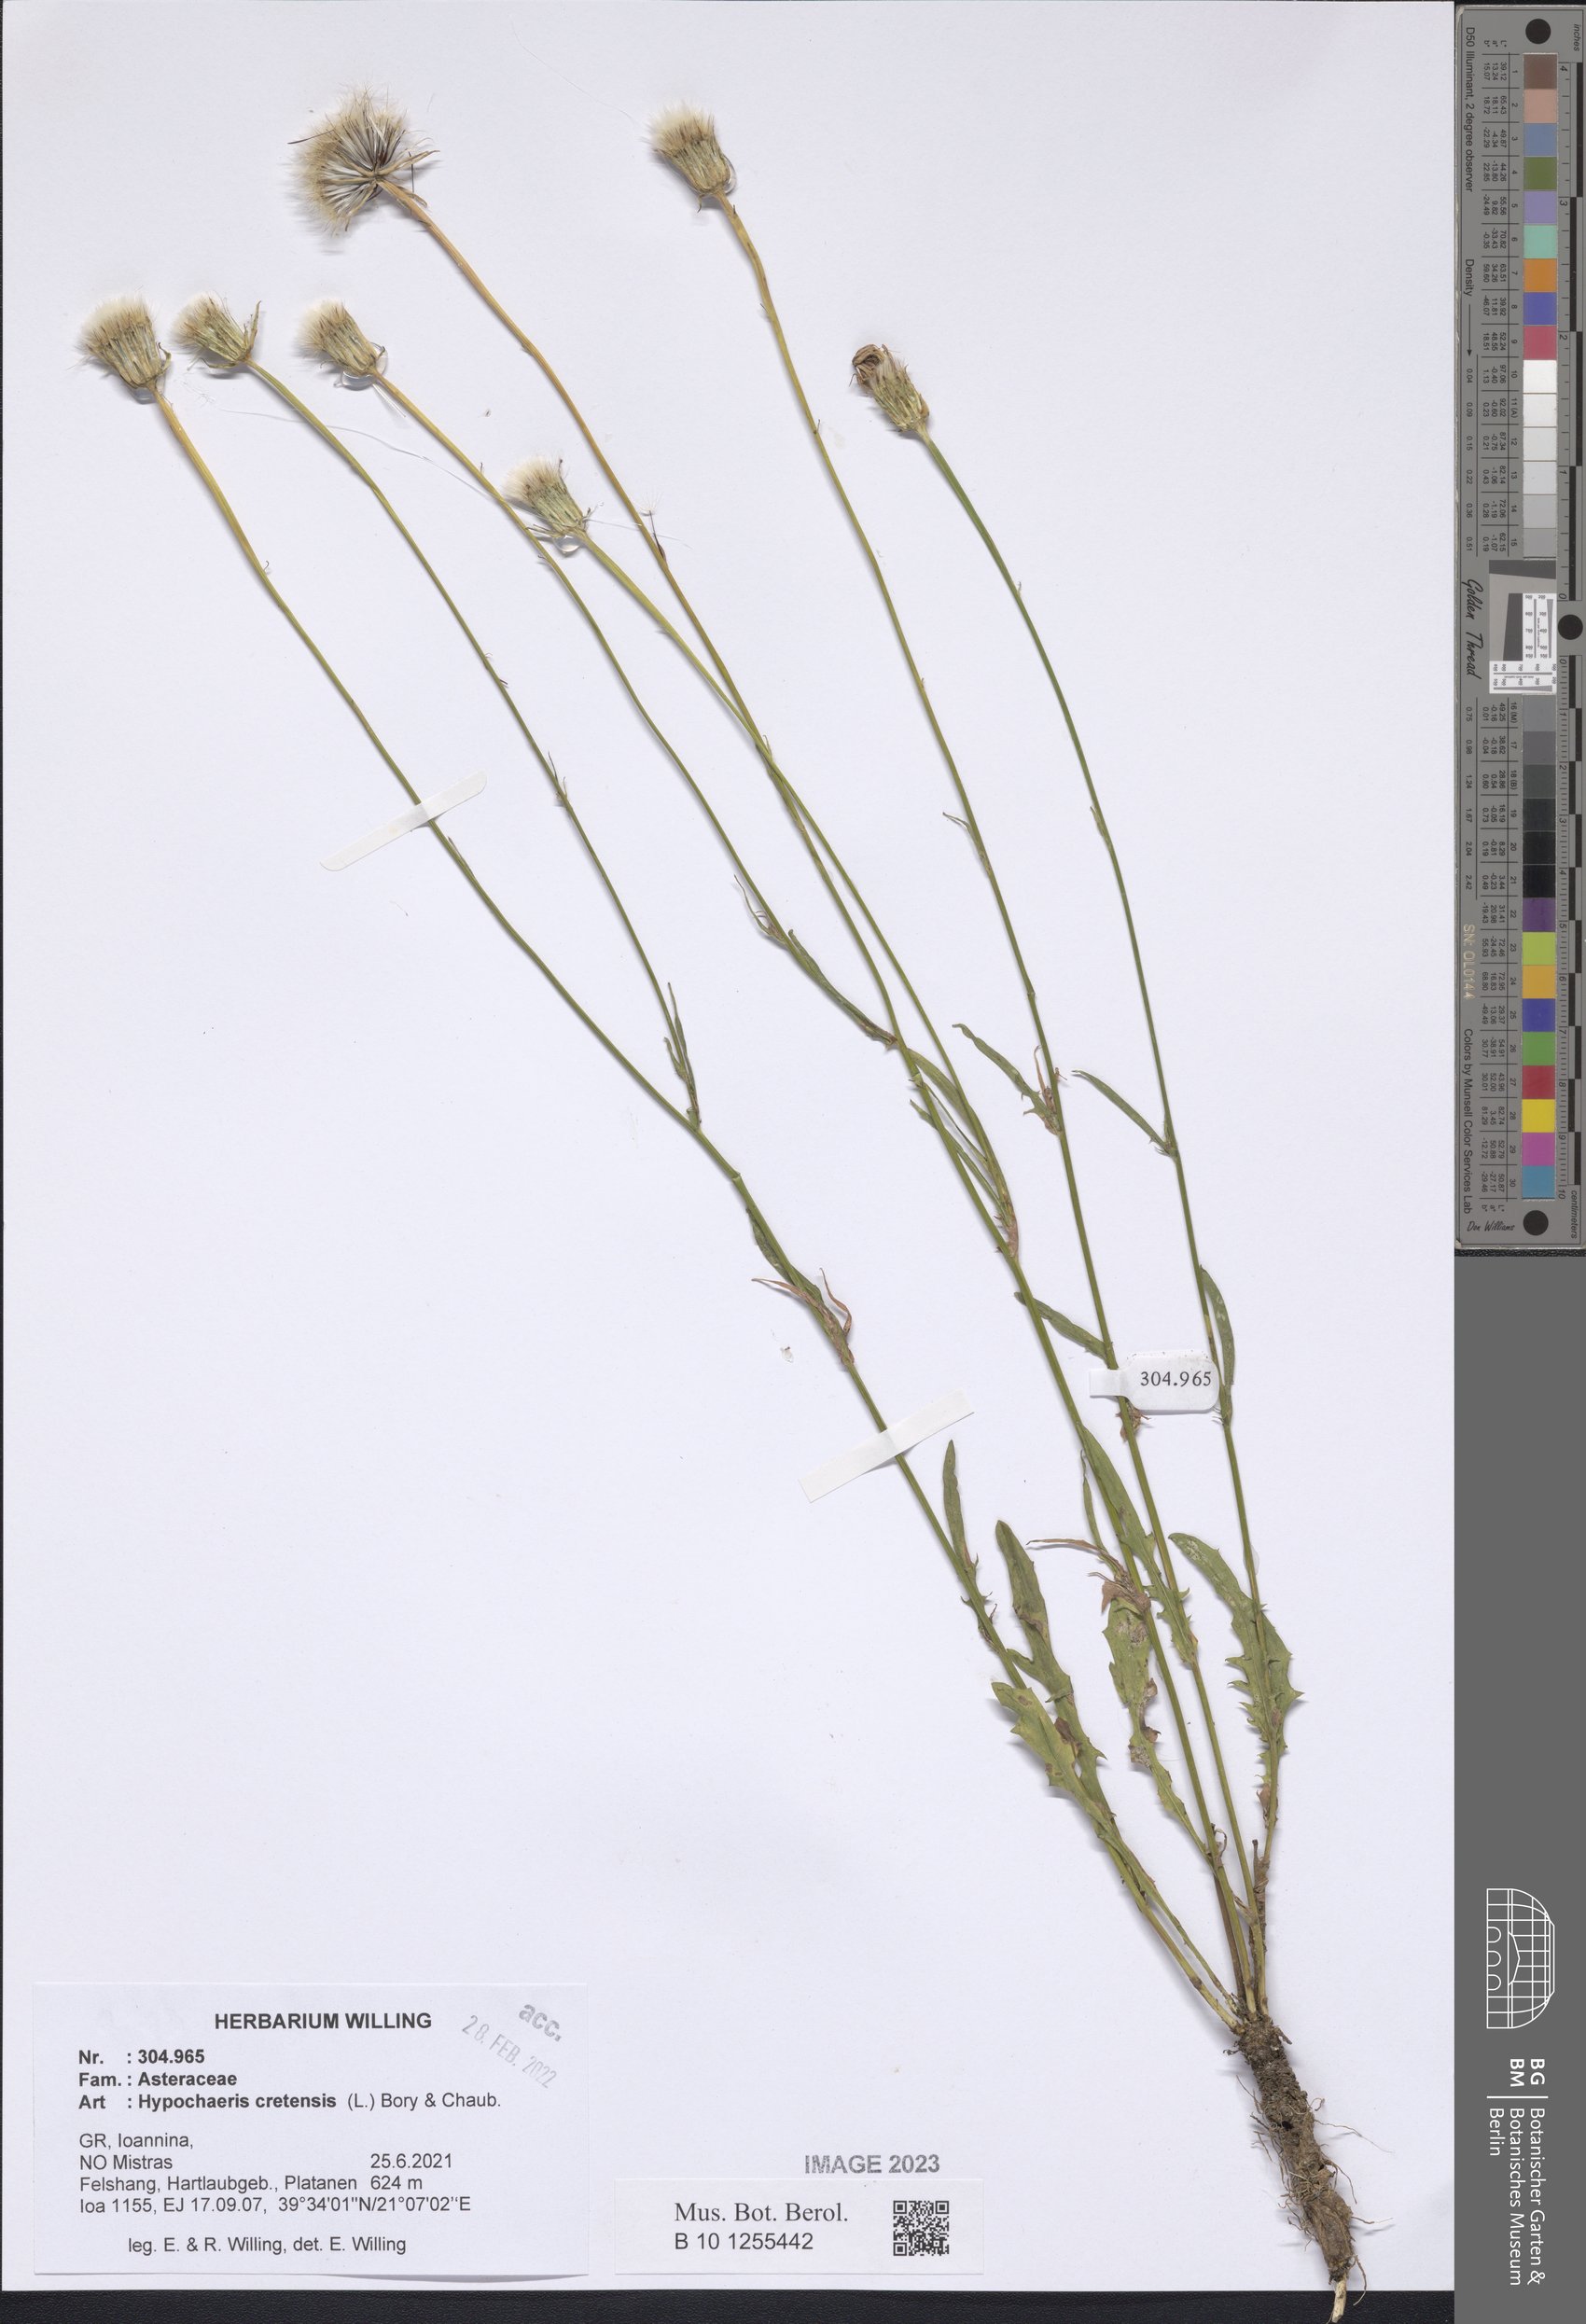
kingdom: Plantae
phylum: Tracheophyta
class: Magnoliopsida
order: Asterales
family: Asteraceae
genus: Hypochaeris
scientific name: Hypochaeris cretensis
